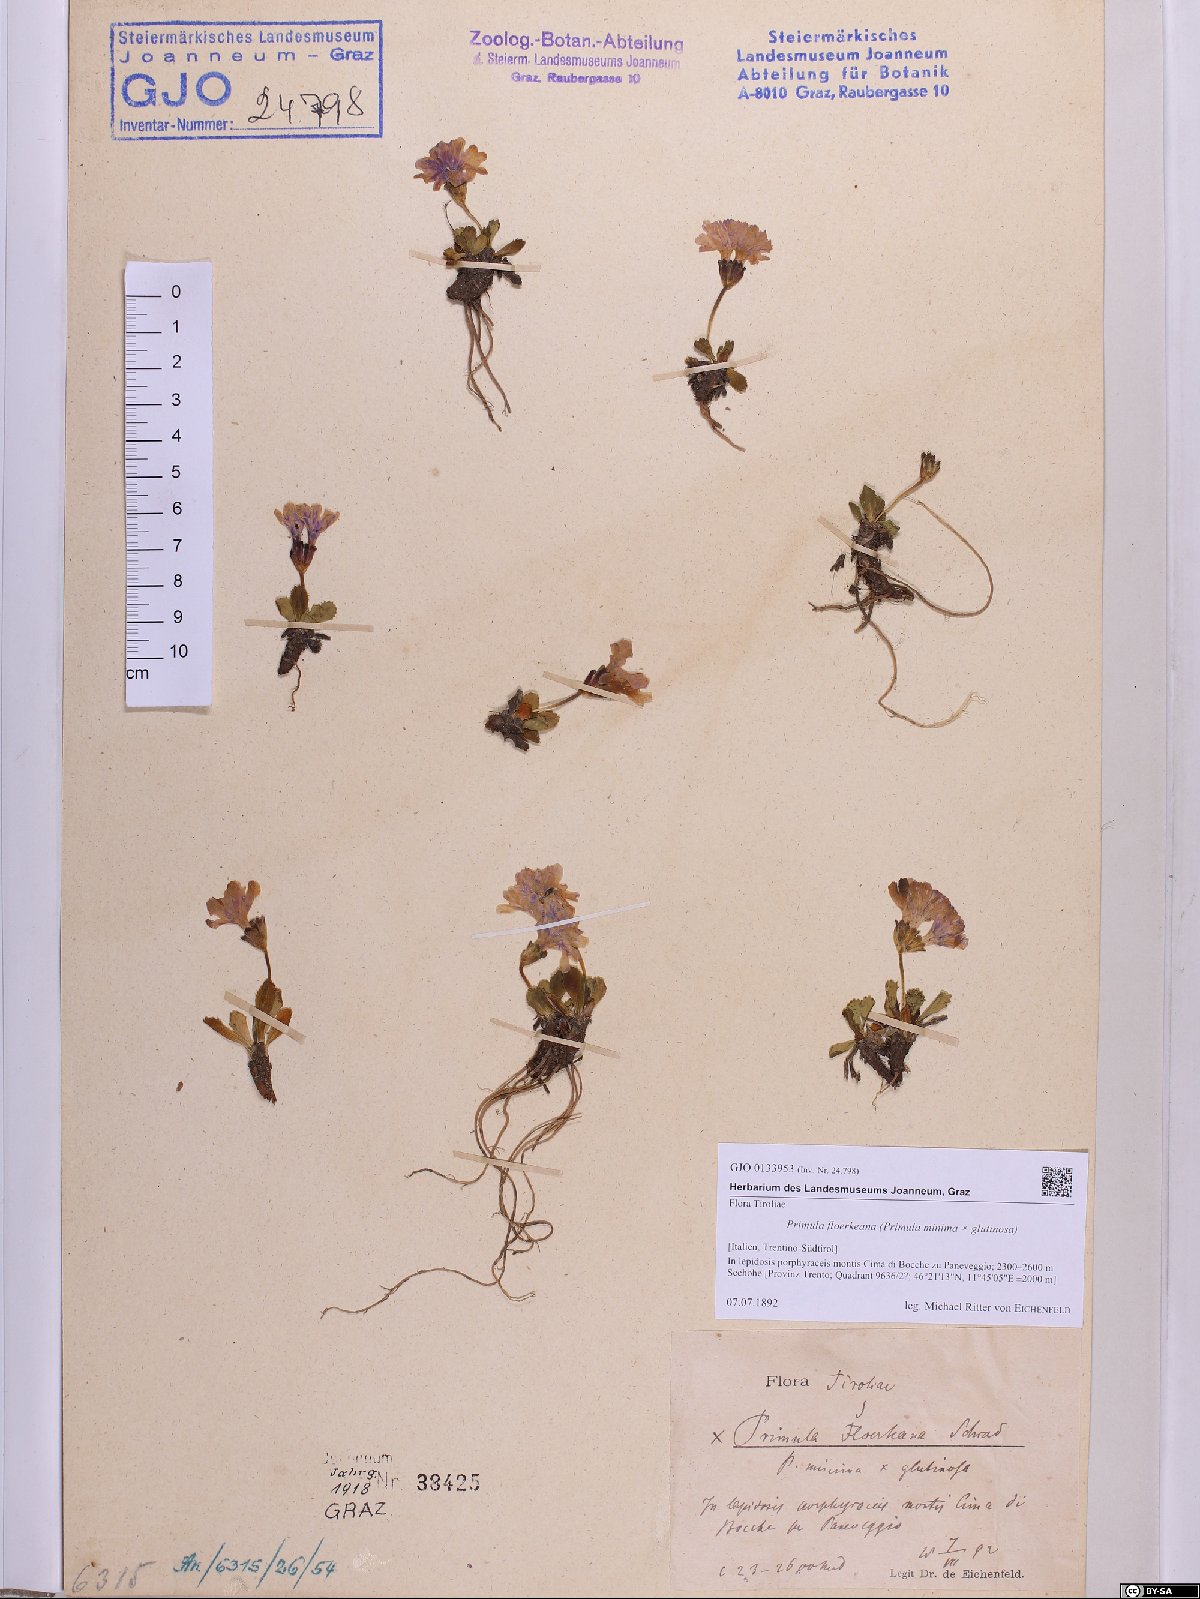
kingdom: Plantae
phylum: Tracheophyta
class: Magnoliopsida
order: Ericales
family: Primulaceae
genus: Primula
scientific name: Primula floerkeana
